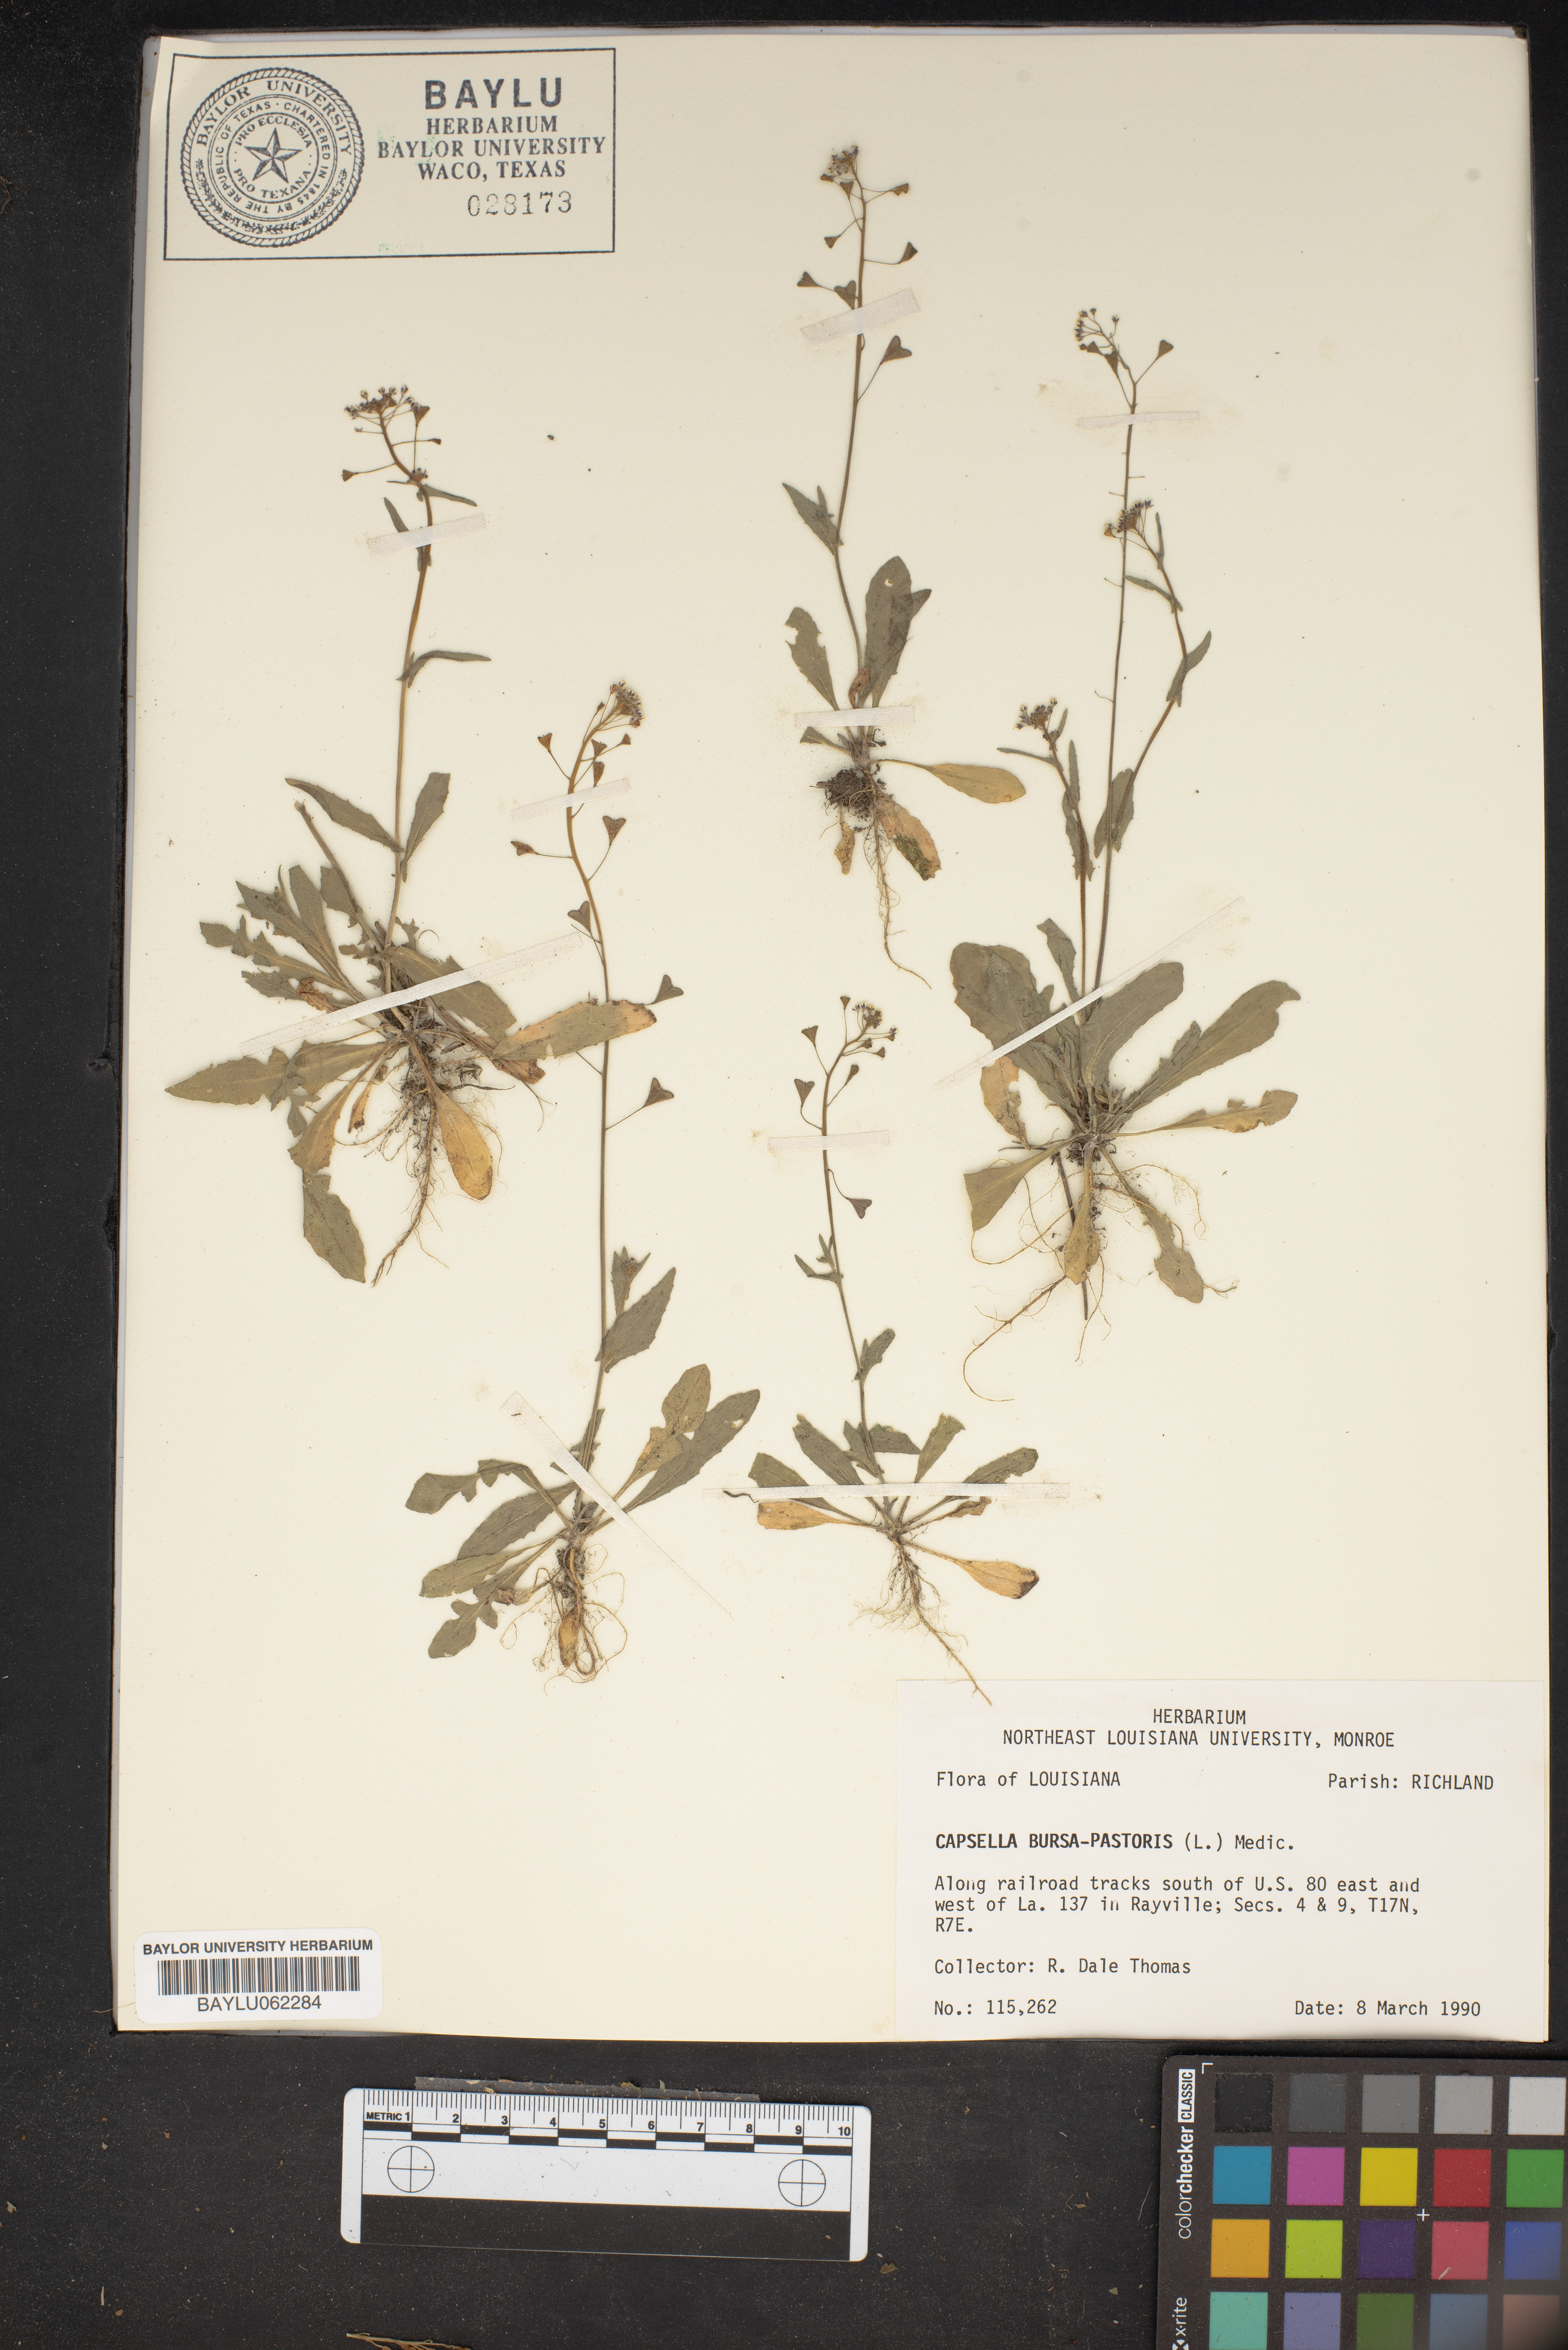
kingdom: Plantae
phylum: Tracheophyta
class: Magnoliopsida
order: Brassicales
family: Brassicaceae
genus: Capsella
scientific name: Capsella bursa-pastoris
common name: Shepherd's purse
